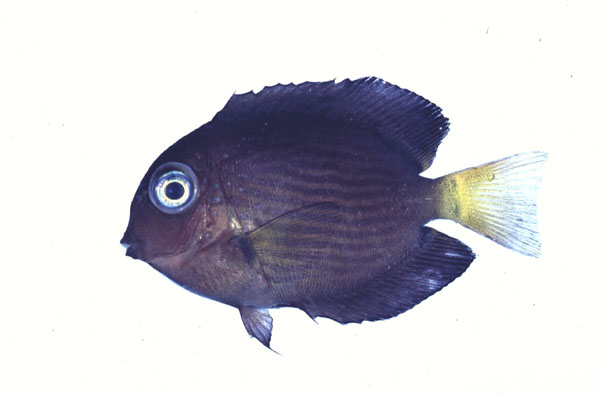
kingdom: Animalia
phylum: Chordata
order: Perciformes
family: Acanthuridae
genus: Ctenochaetus
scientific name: Ctenochaetus binotatus
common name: Two-spot bristletooth
